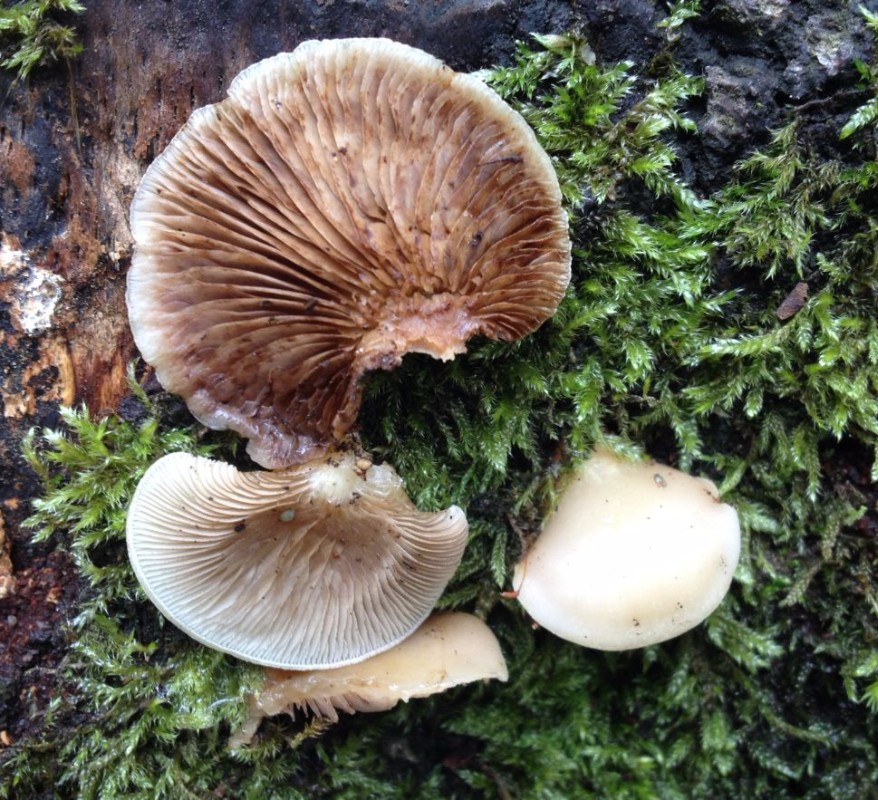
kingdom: Fungi
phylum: Basidiomycota
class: Agaricomycetes
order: Agaricales
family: Crepidotaceae
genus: Crepidotus
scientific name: Crepidotus mollis
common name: blød muslingesvamp
